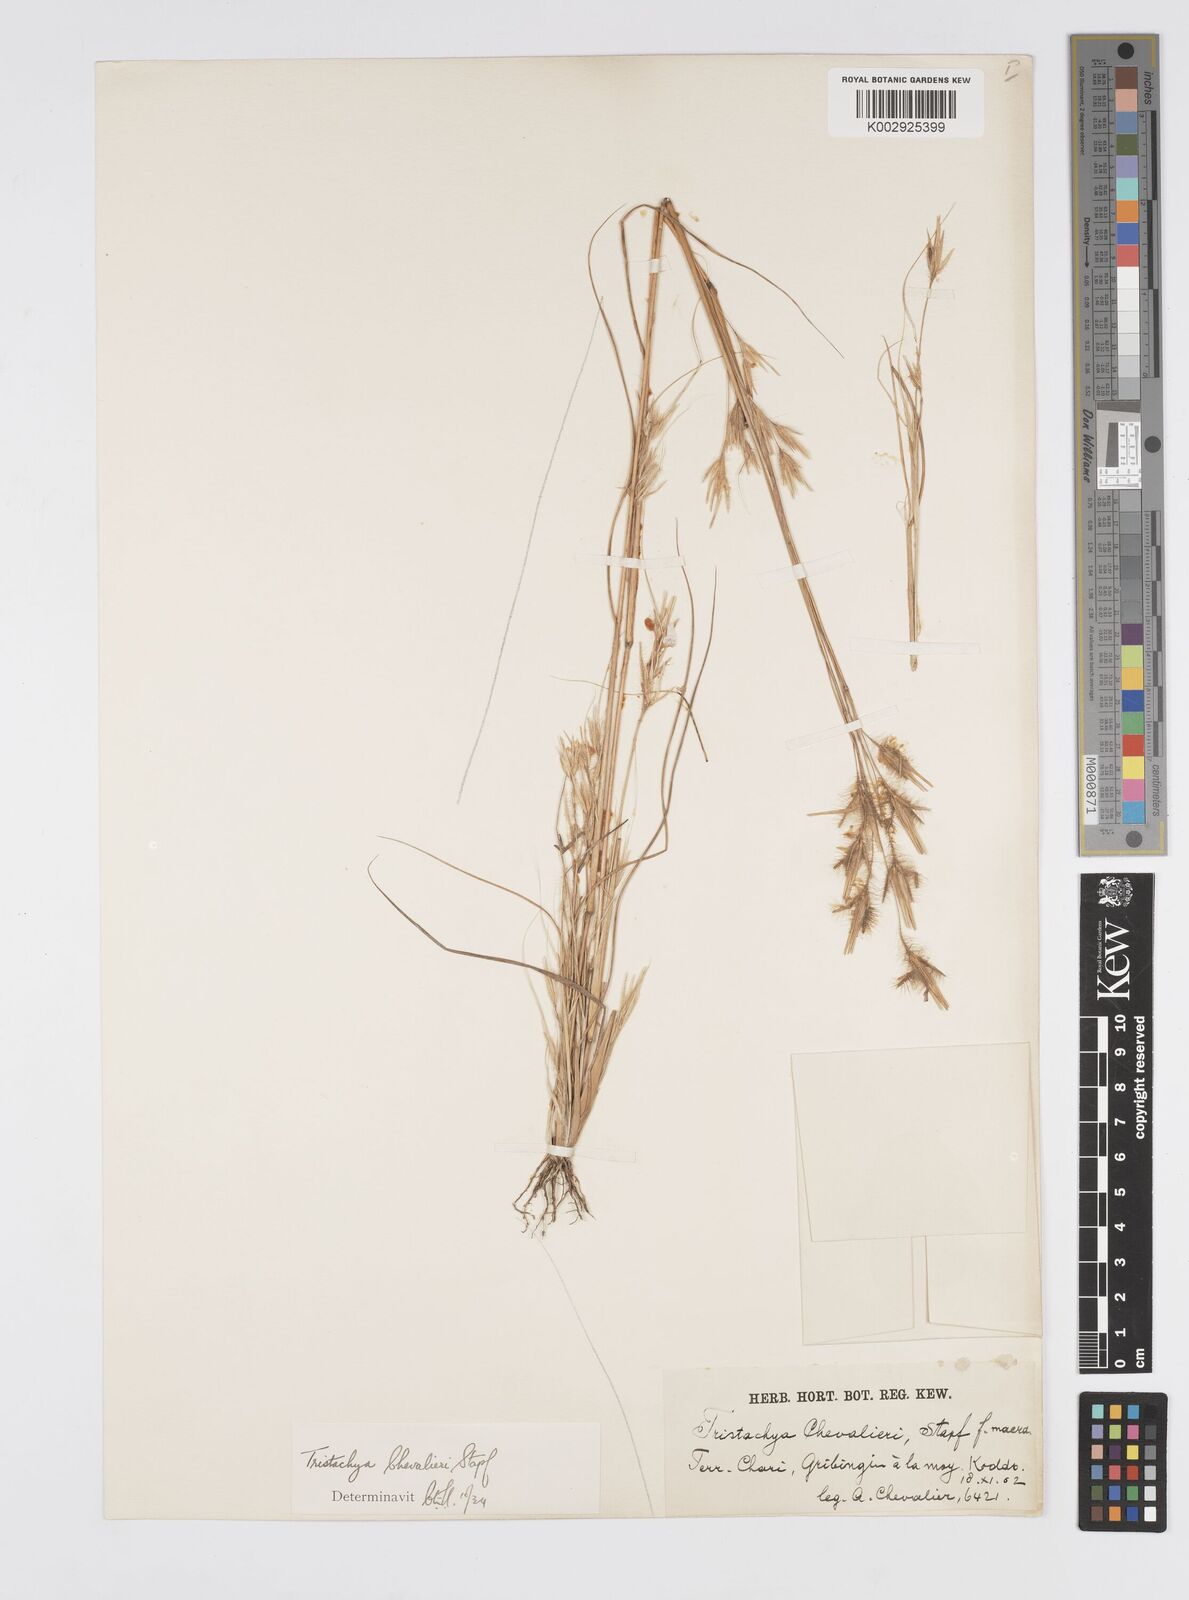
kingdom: Plantae
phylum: Tracheophyta
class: Liliopsida
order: Poales
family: Poaceae
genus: Loudetiopsis
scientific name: Loudetiopsis chevalieri
